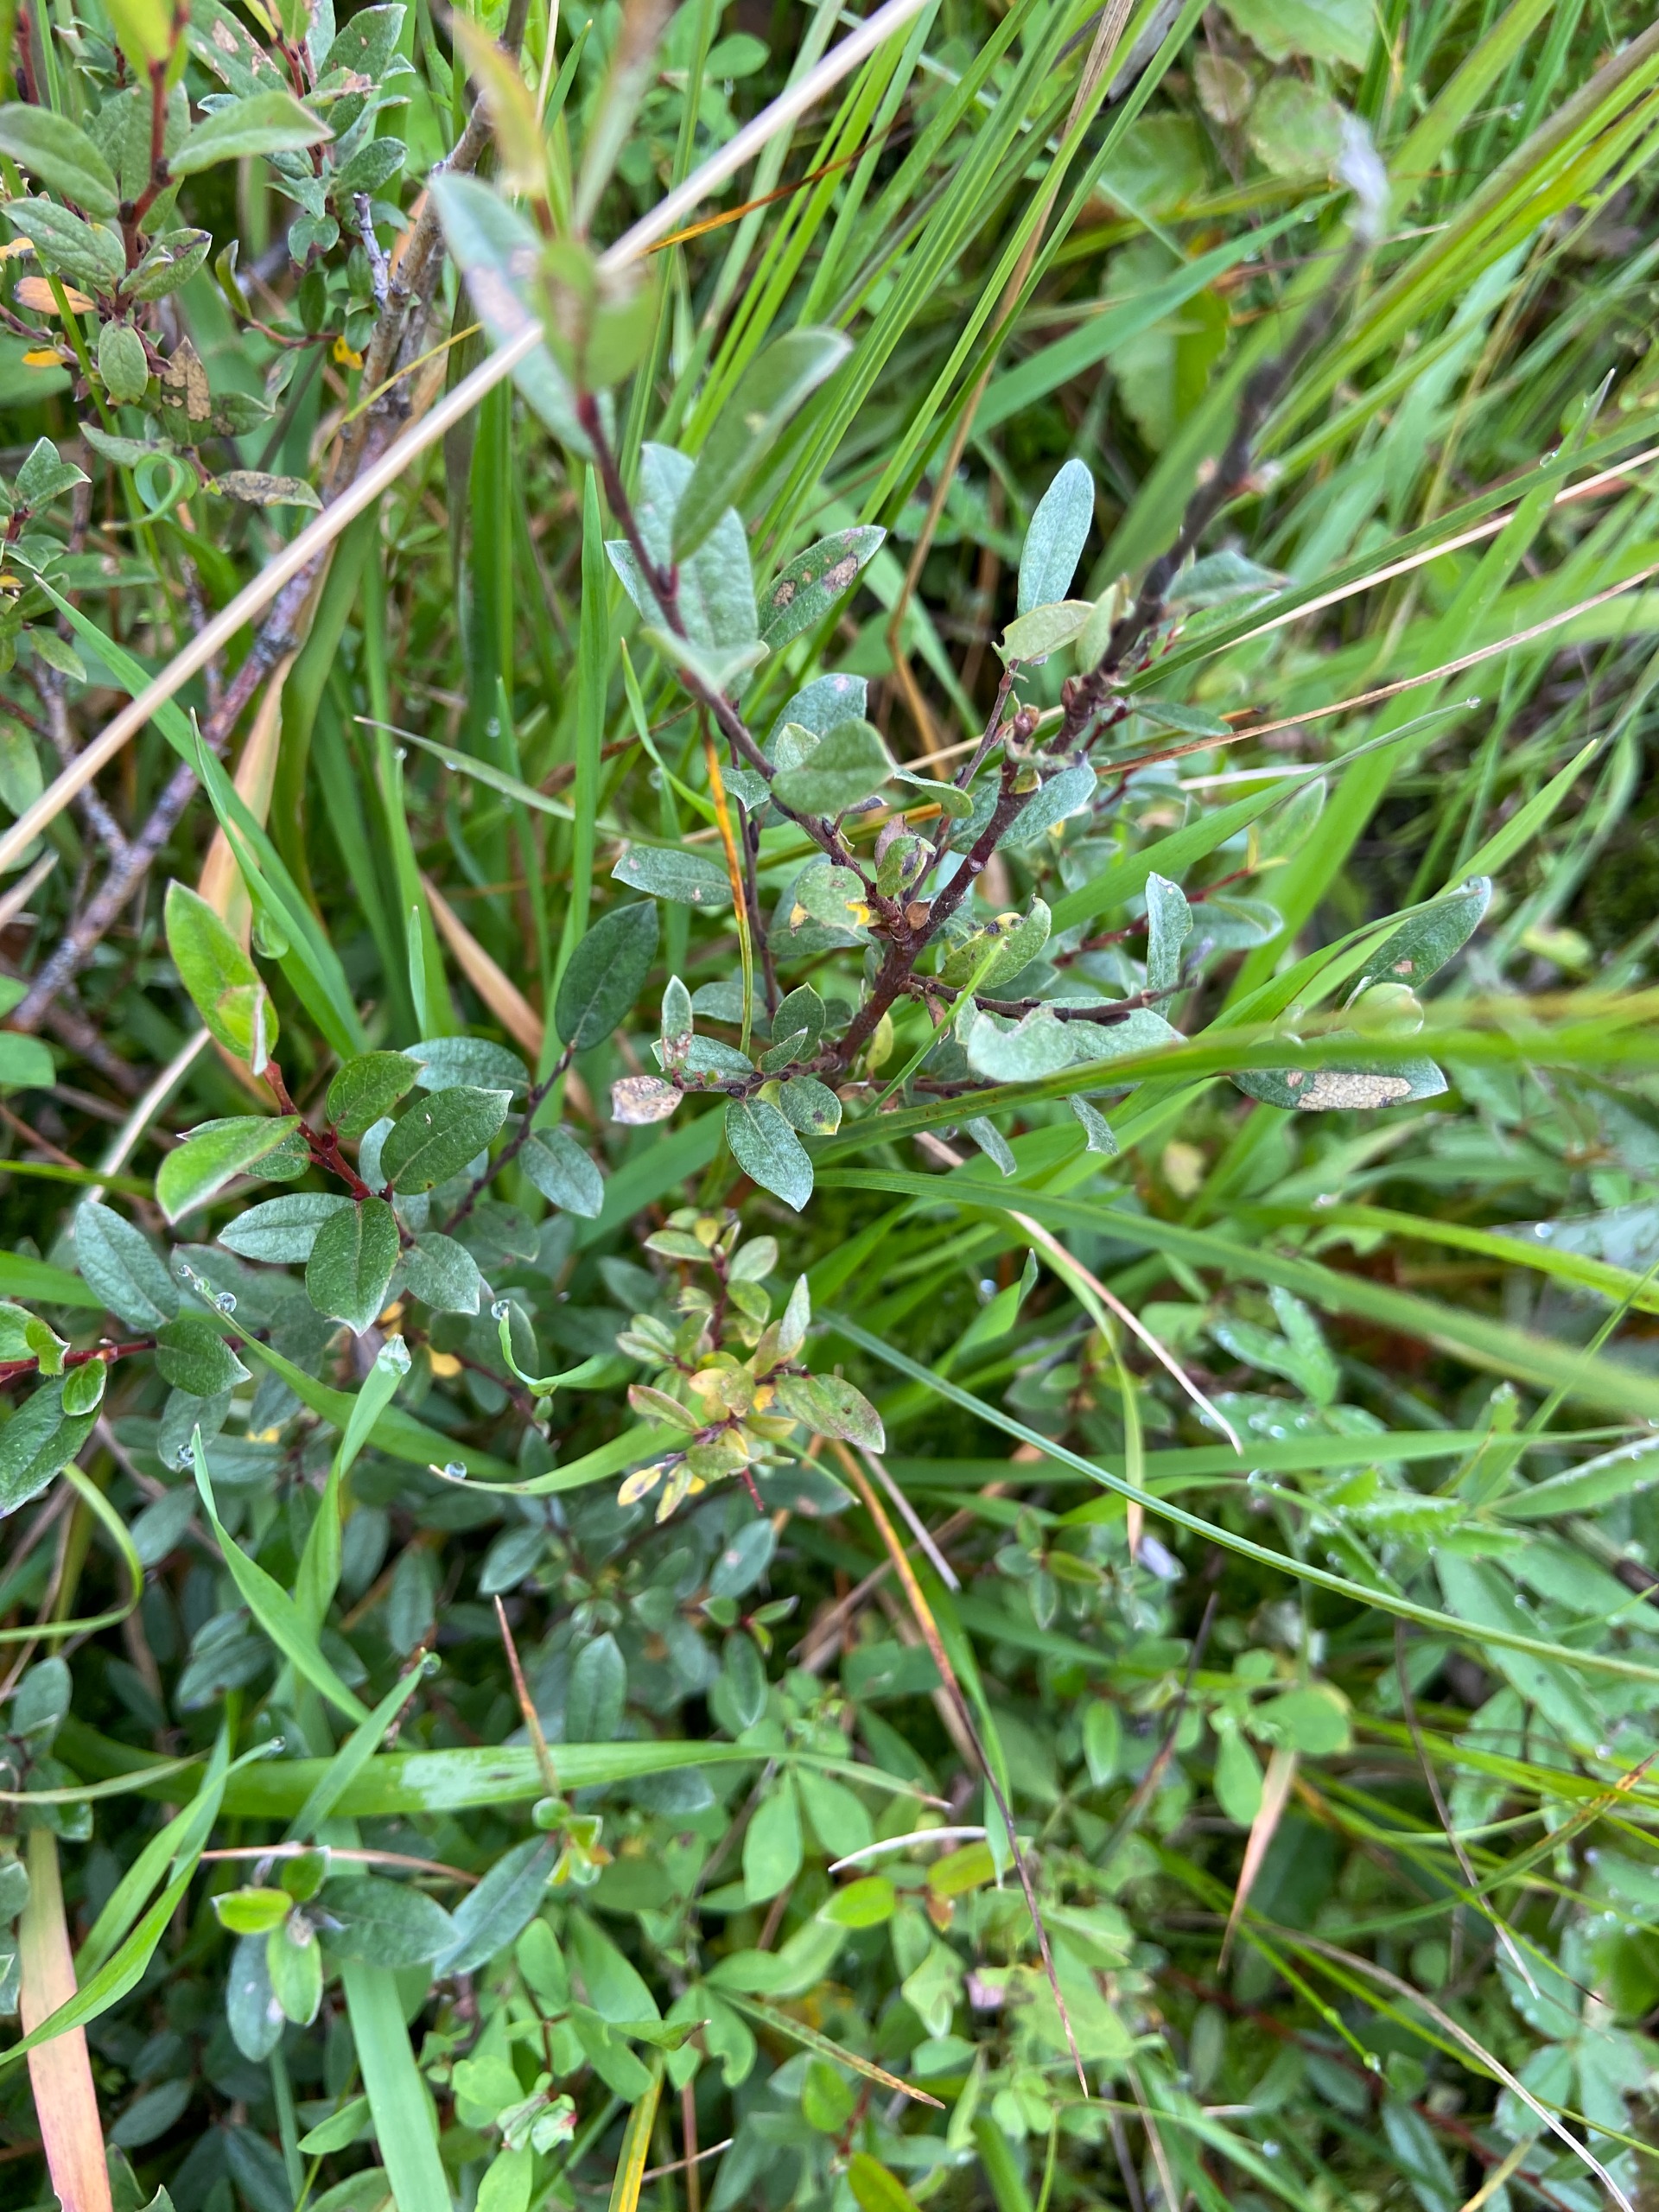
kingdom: Plantae
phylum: Tracheophyta
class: Magnoliopsida
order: Malpighiales
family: Salicaceae
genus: Salix
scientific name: Salix repens
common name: Krybende pil
